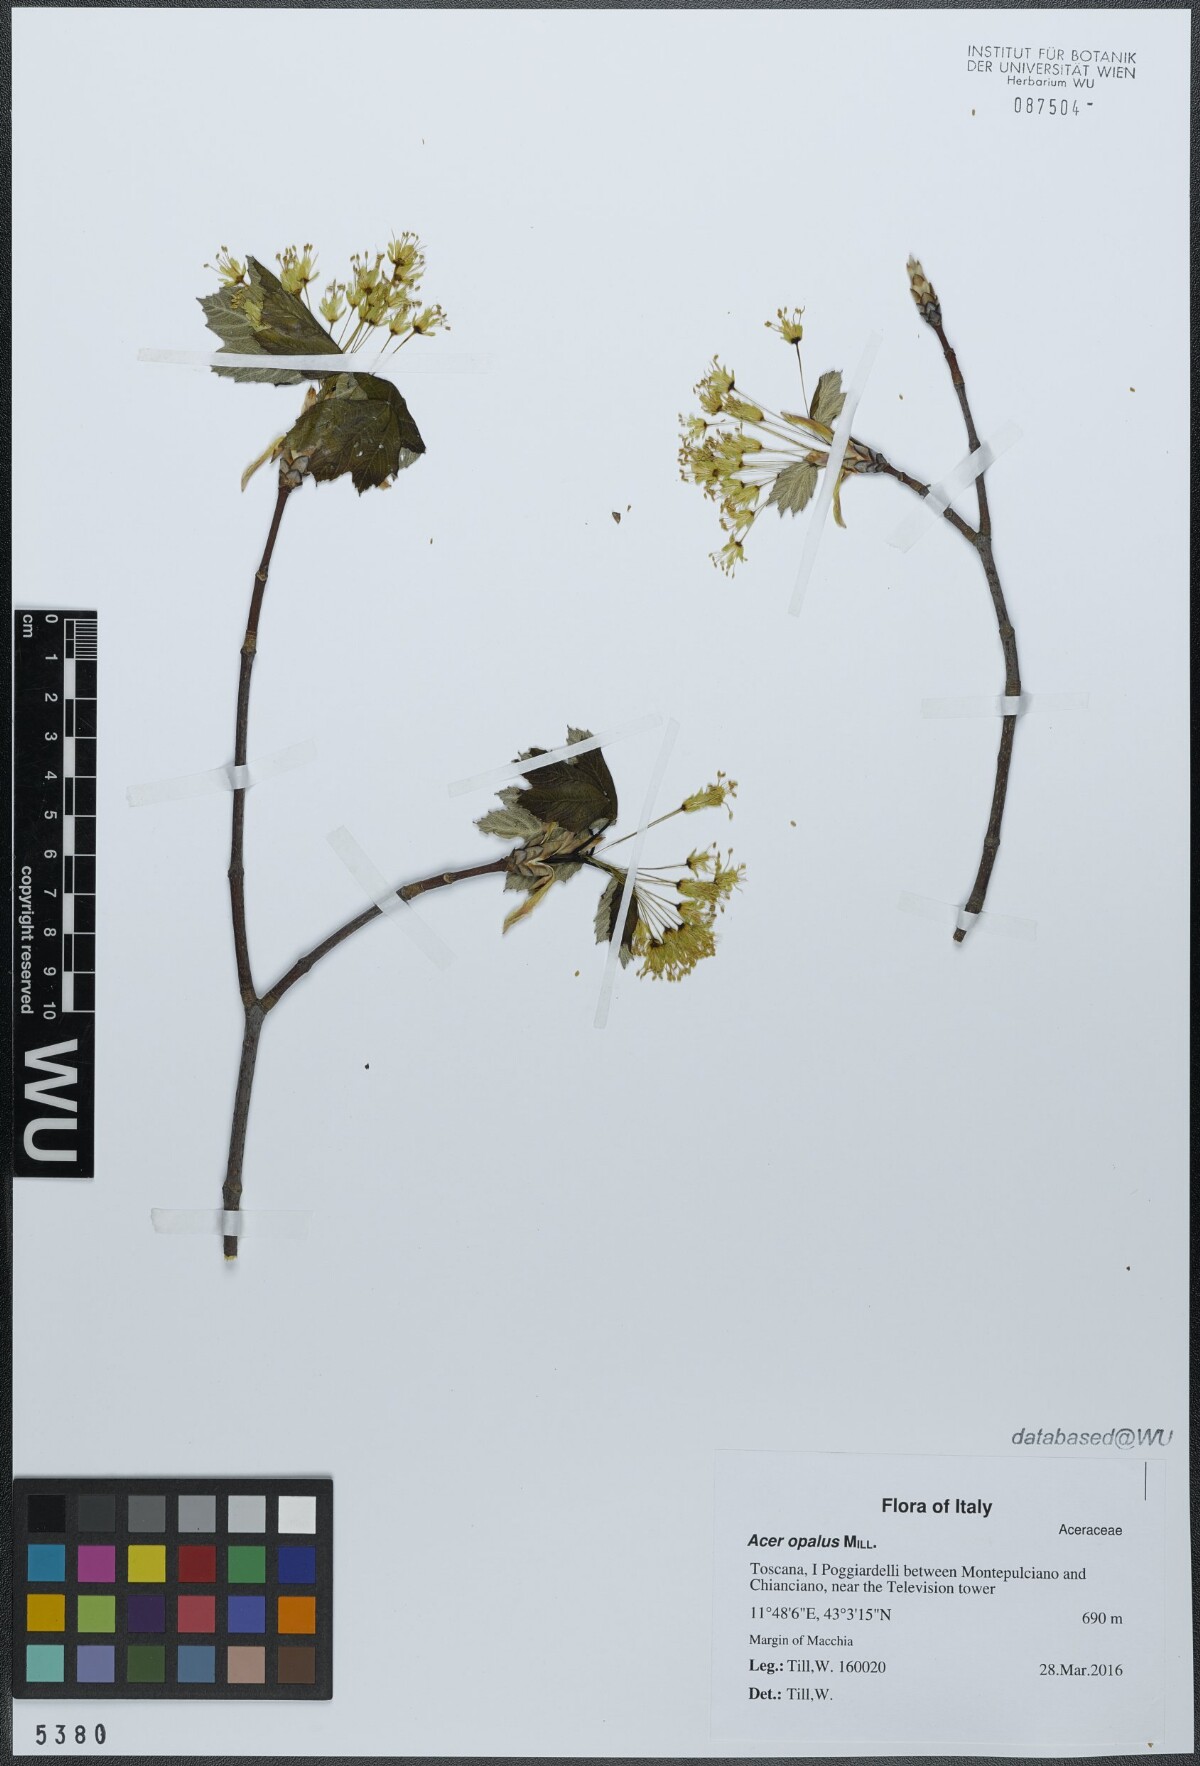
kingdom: Plantae
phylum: Tracheophyta
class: Magnoliopsida
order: Sapindales
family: Sapindaceae
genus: Acer
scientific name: Acer opalus
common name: Italian maple
